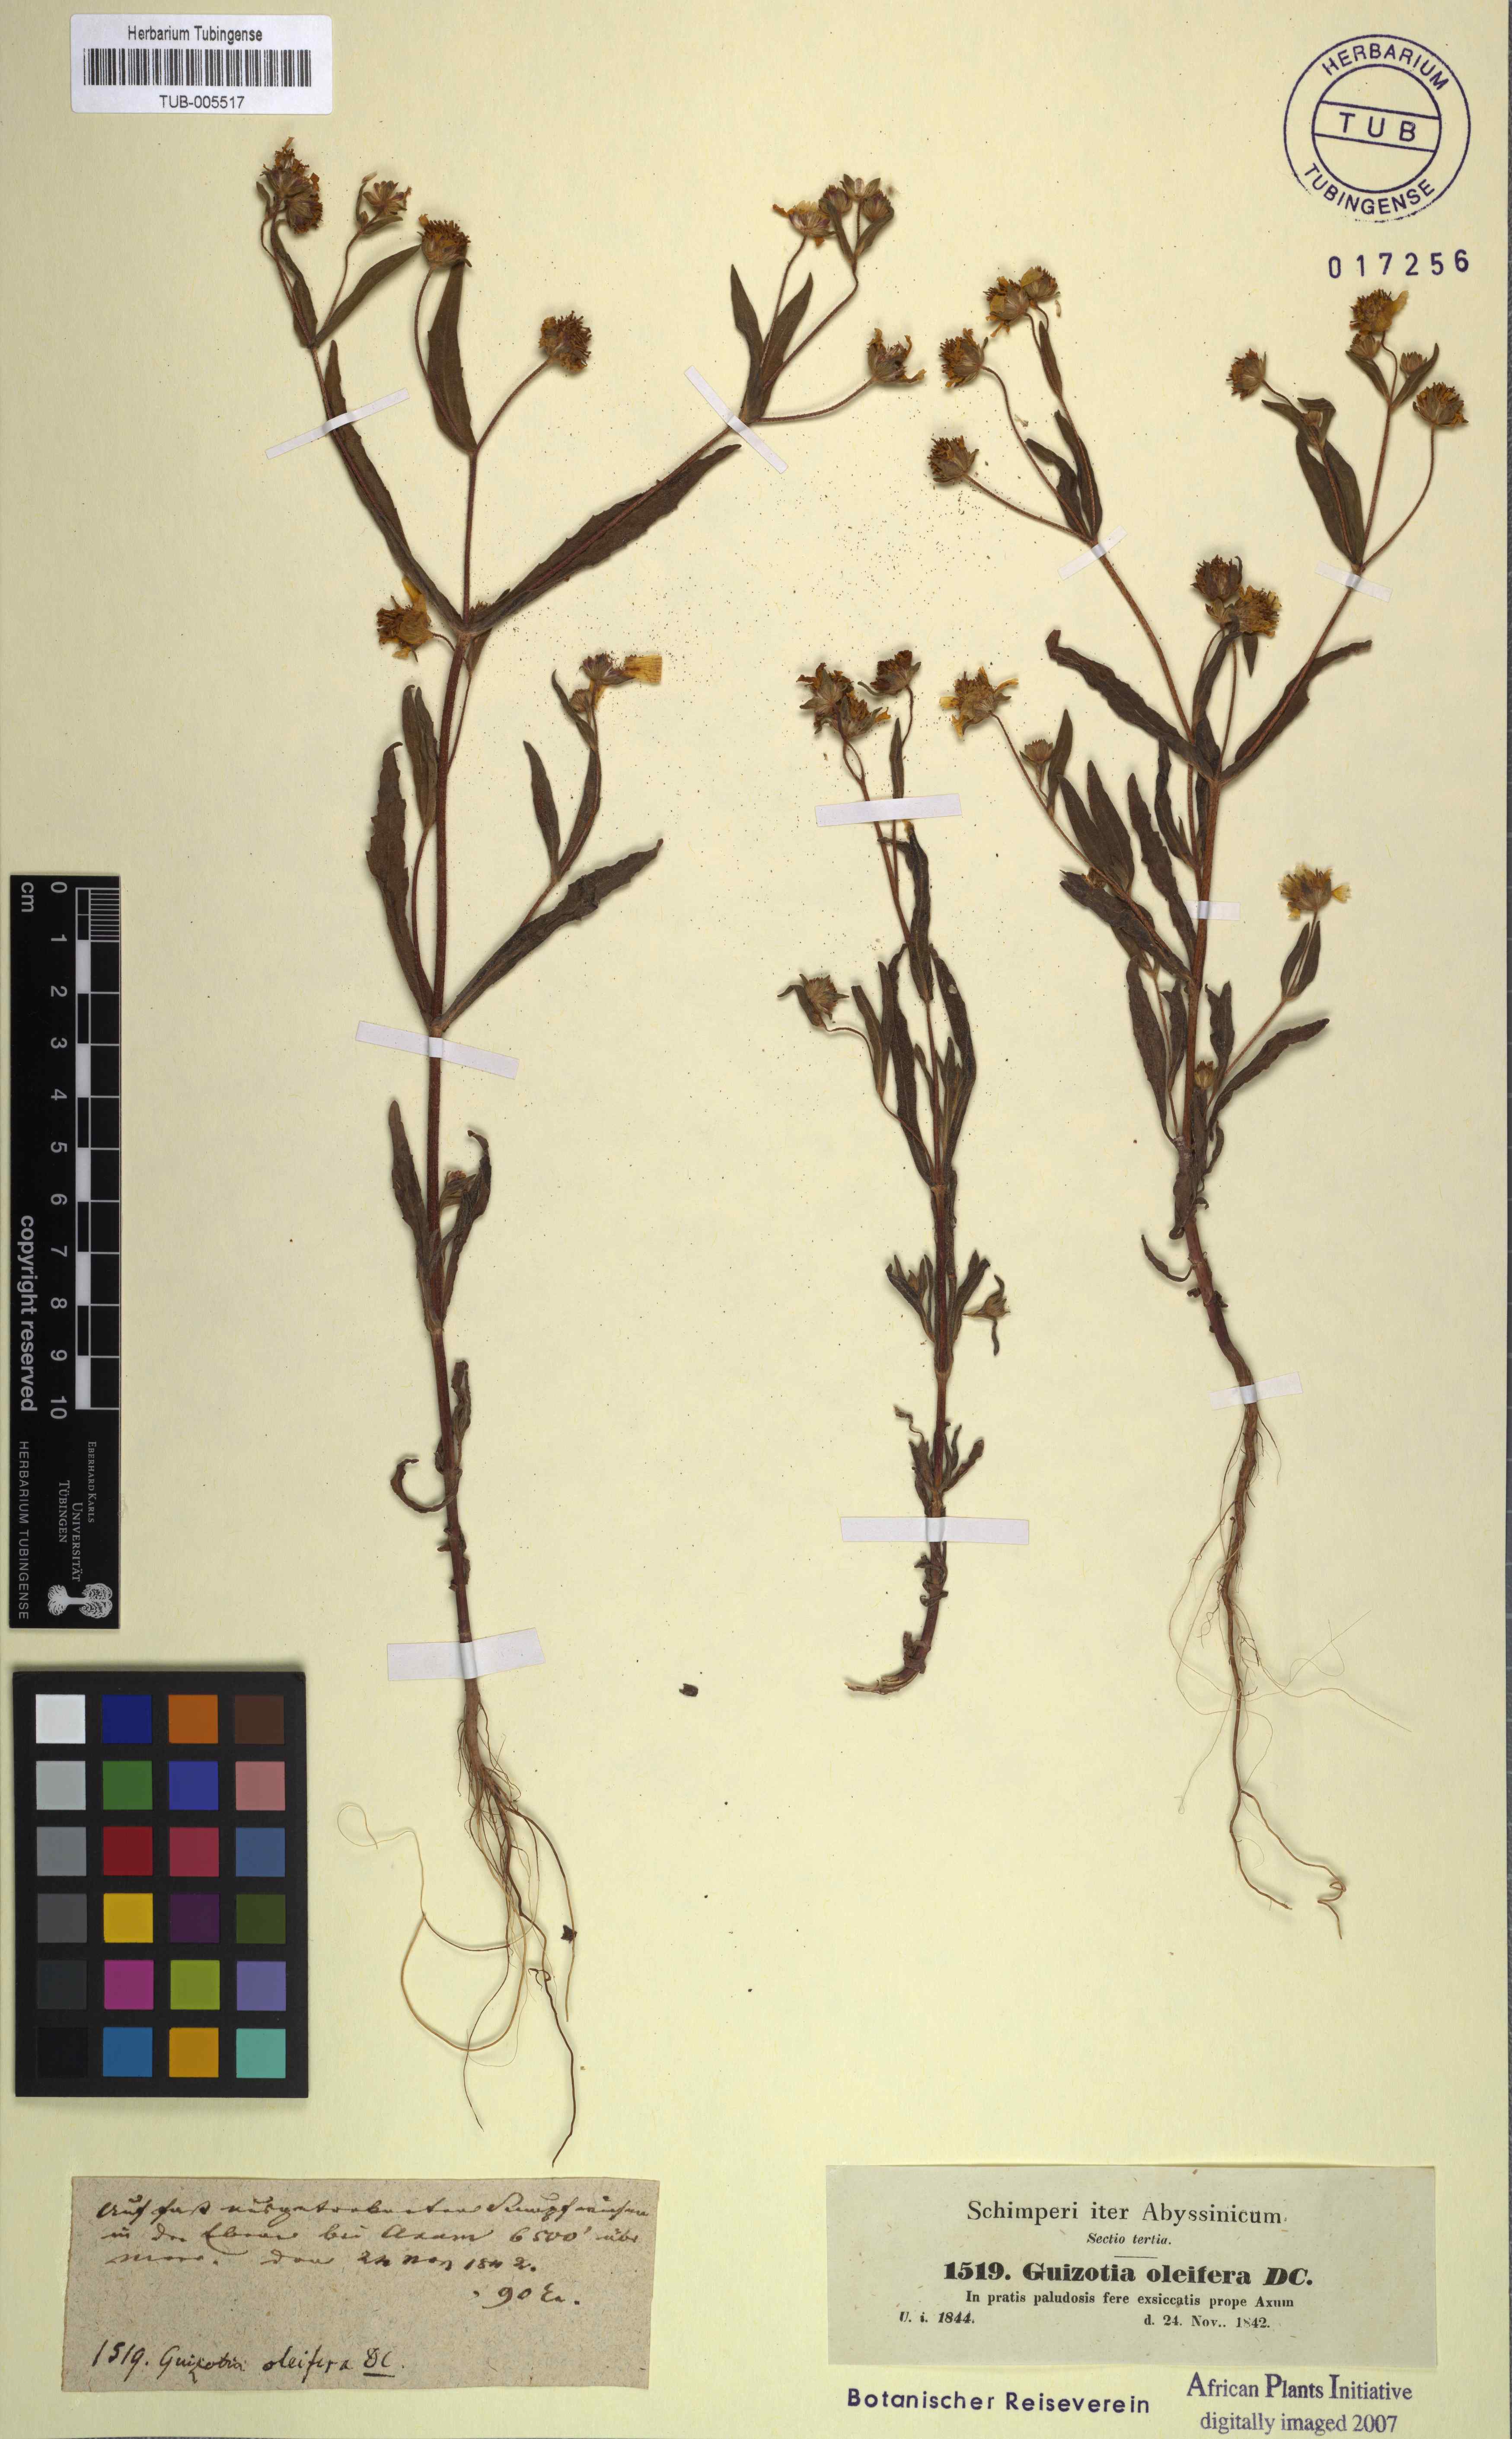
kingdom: Plantae
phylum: Tracheophyta
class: Magnoliopsida
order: Asterales
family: Asteraceae
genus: Guizotia
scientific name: Guizotia abyssinica
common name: Niger
